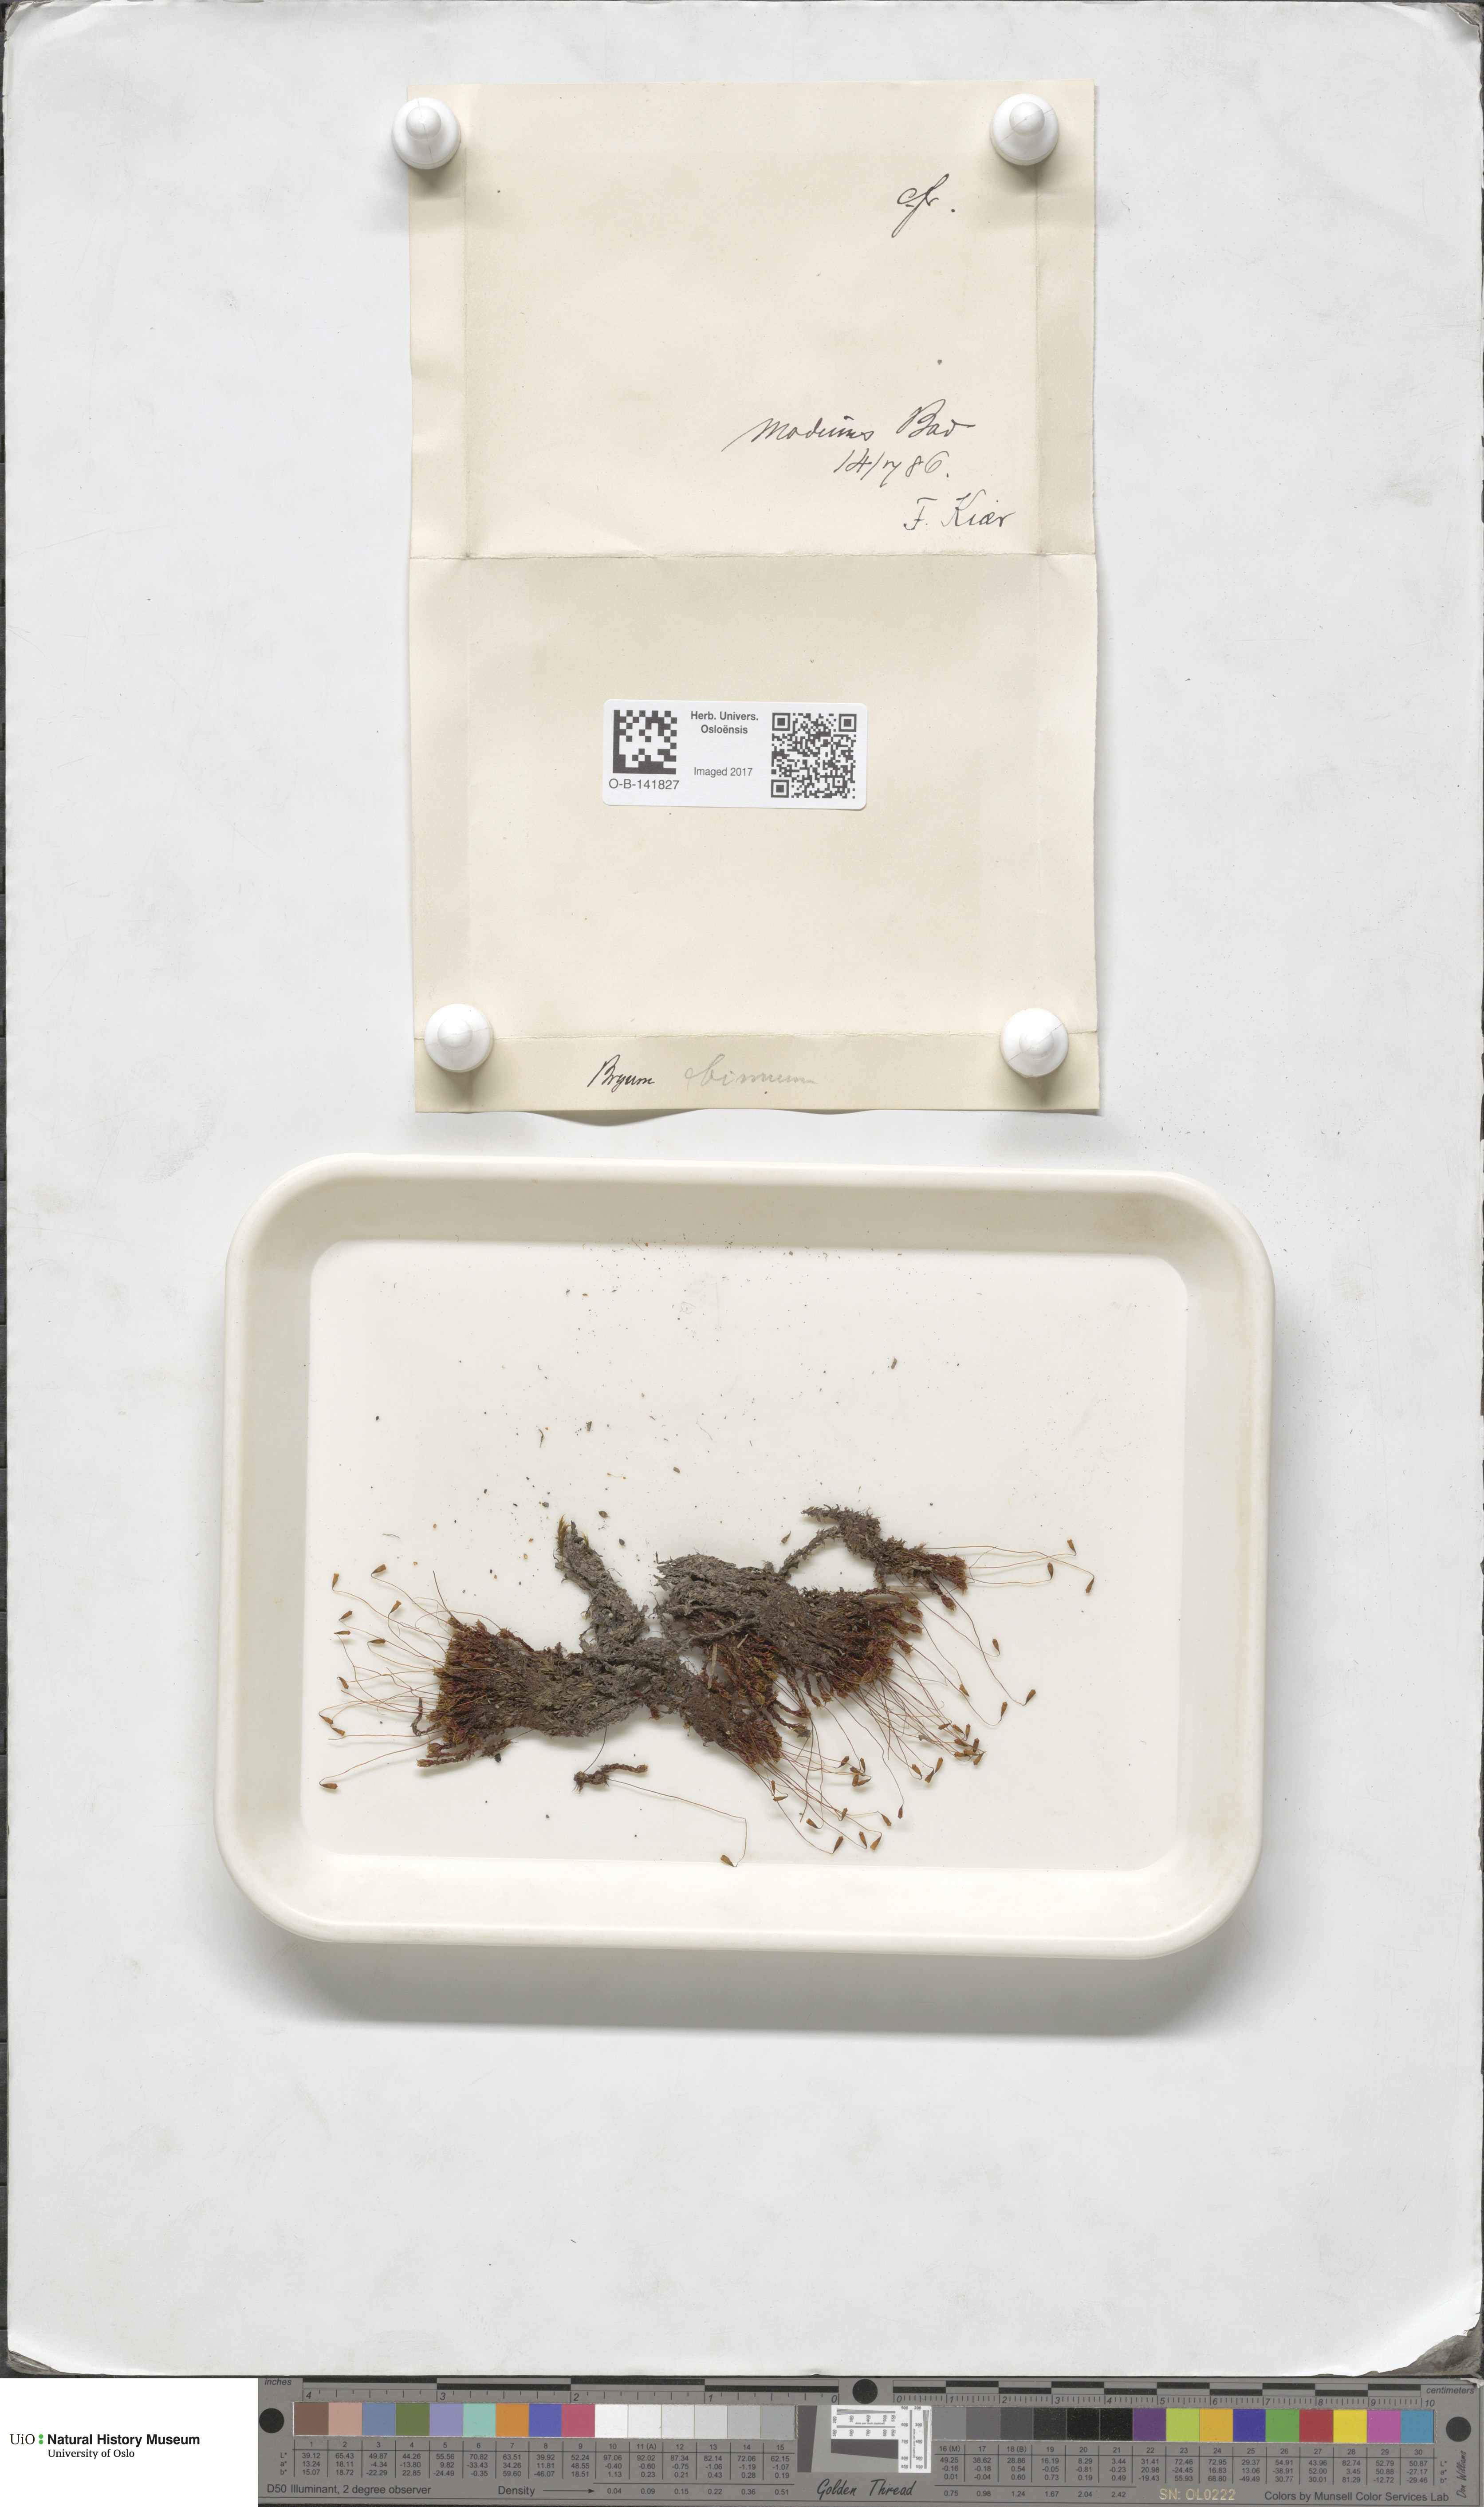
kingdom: Plantae
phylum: Bryophyta
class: Bryopsida
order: Bryales
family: Bryaceae
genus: Ptychostomum
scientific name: Ptychostomum pseudotriquetrum
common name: Long-leaved thread moss
